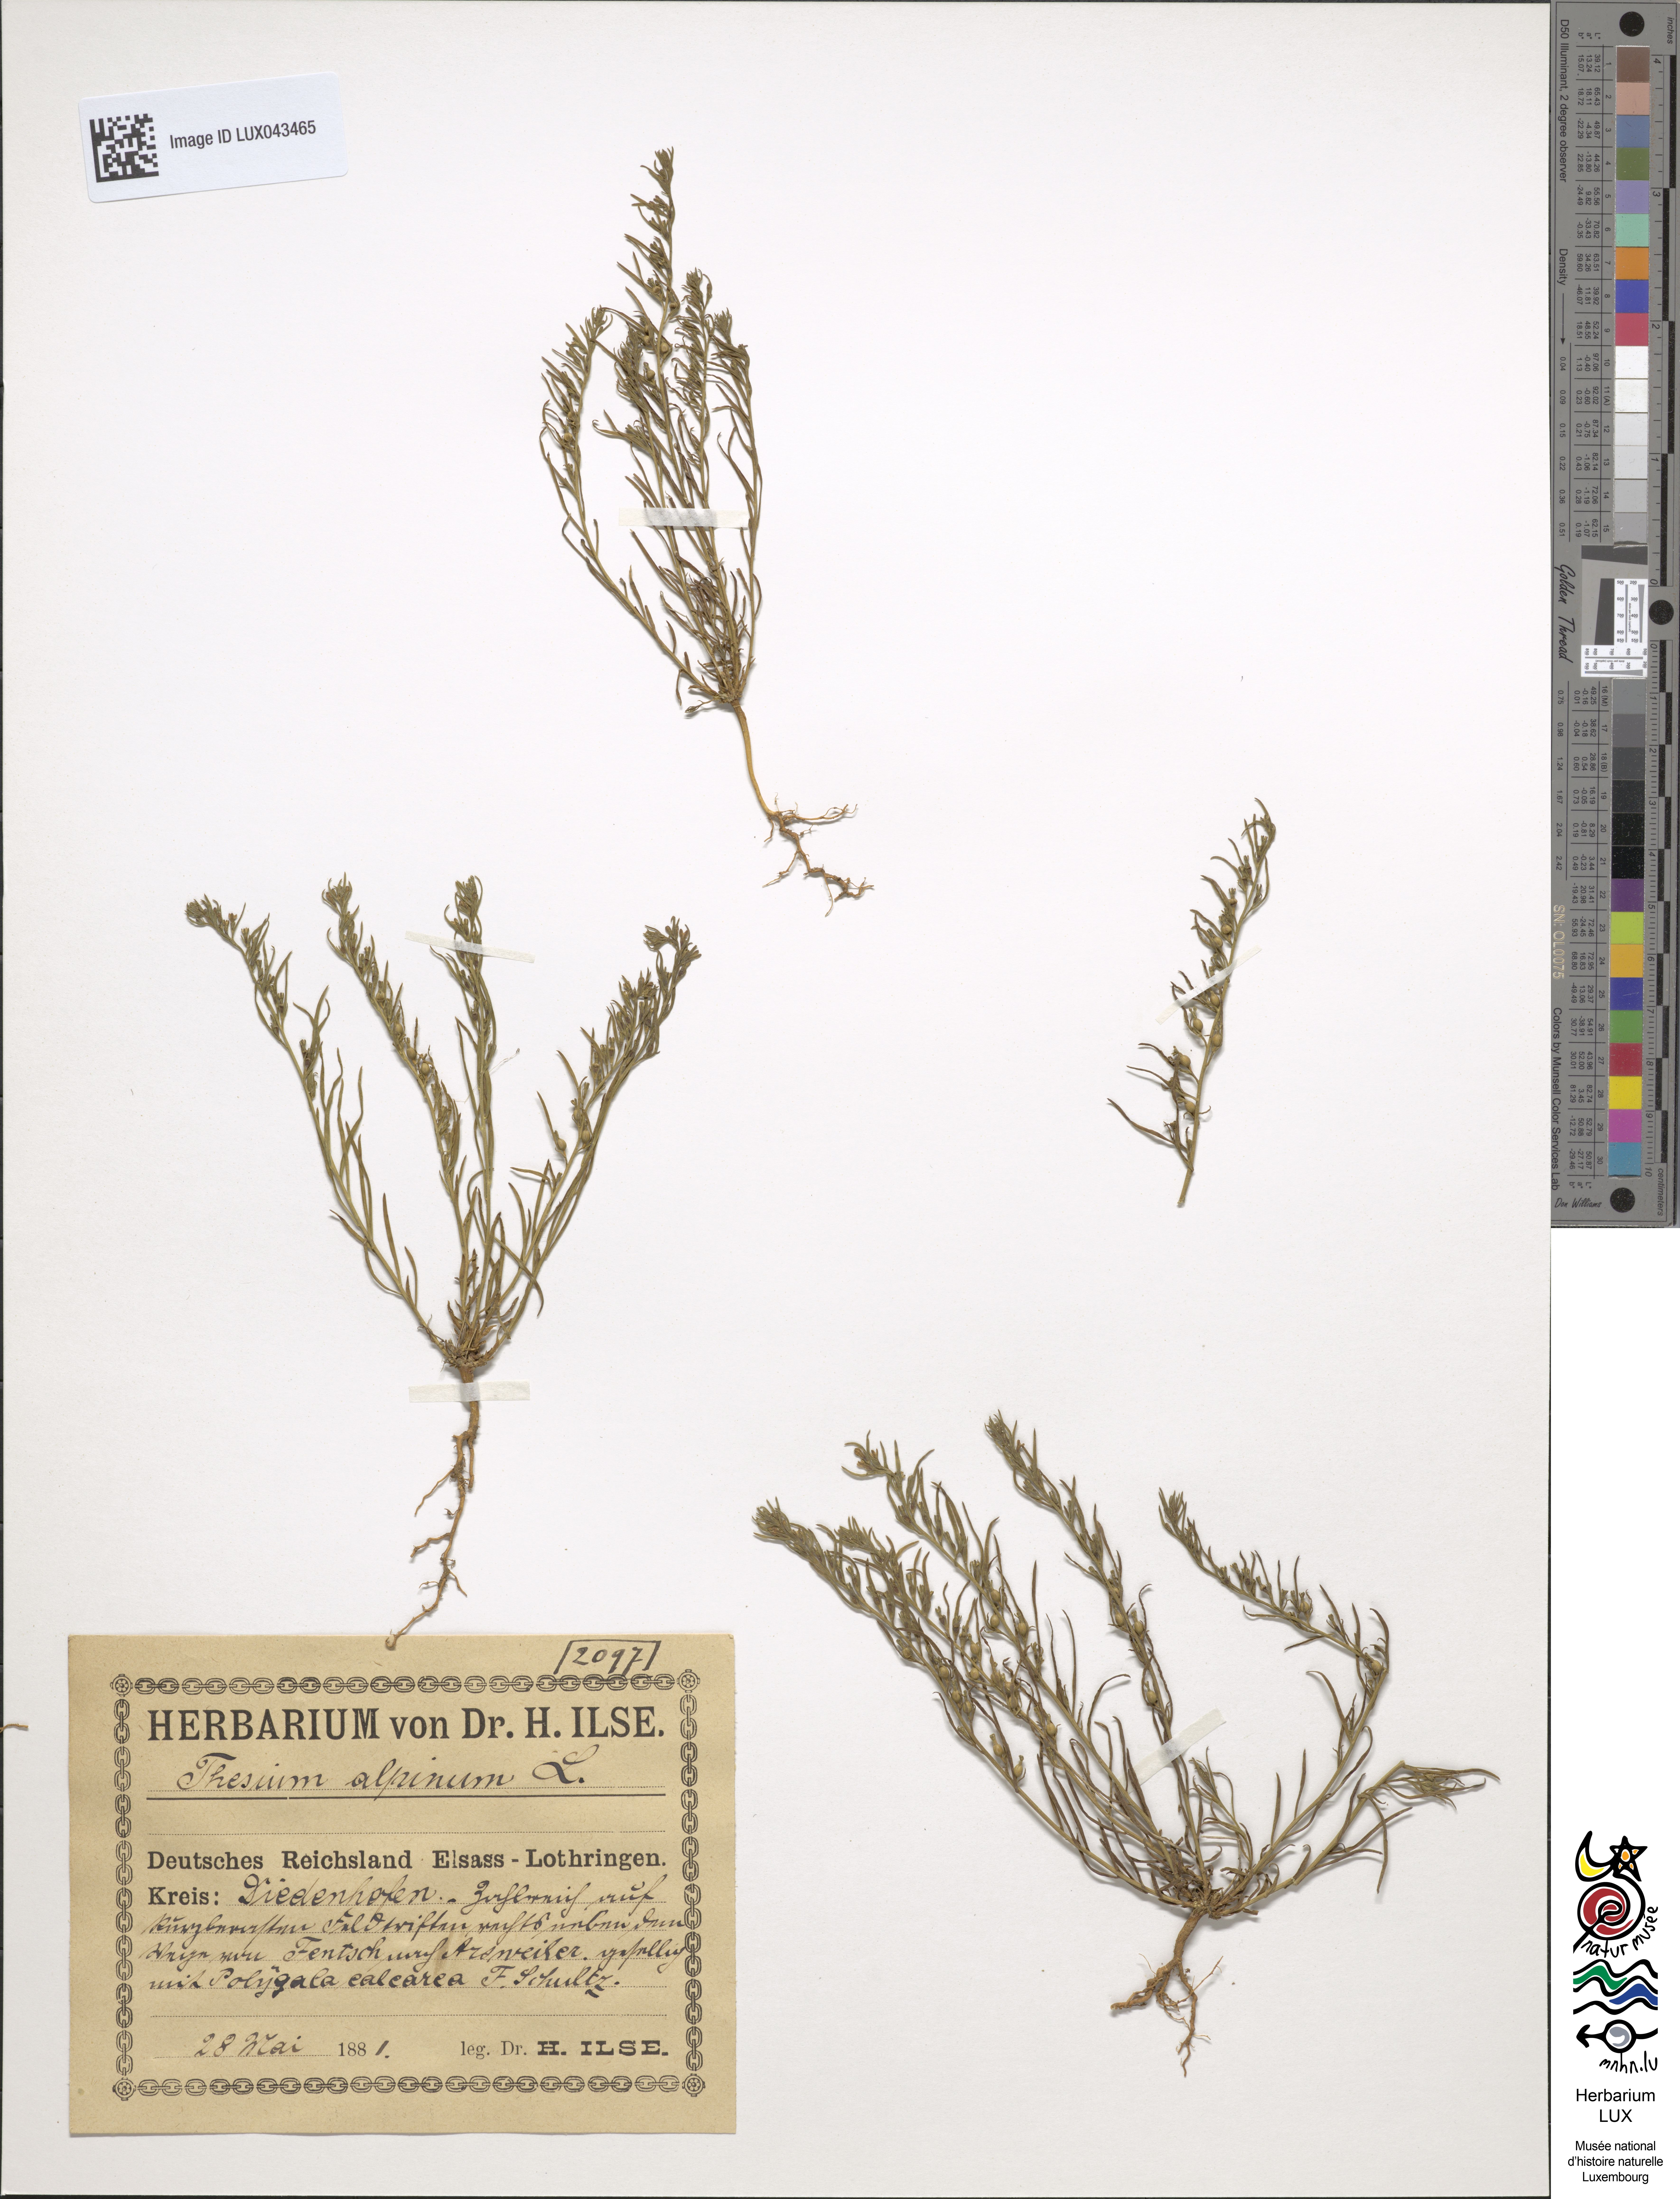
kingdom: Plantae
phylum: Tracheophyta
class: Magnoliopsida
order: Santalales
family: Thesiaceae
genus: Thesium
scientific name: Thesium alpinum
